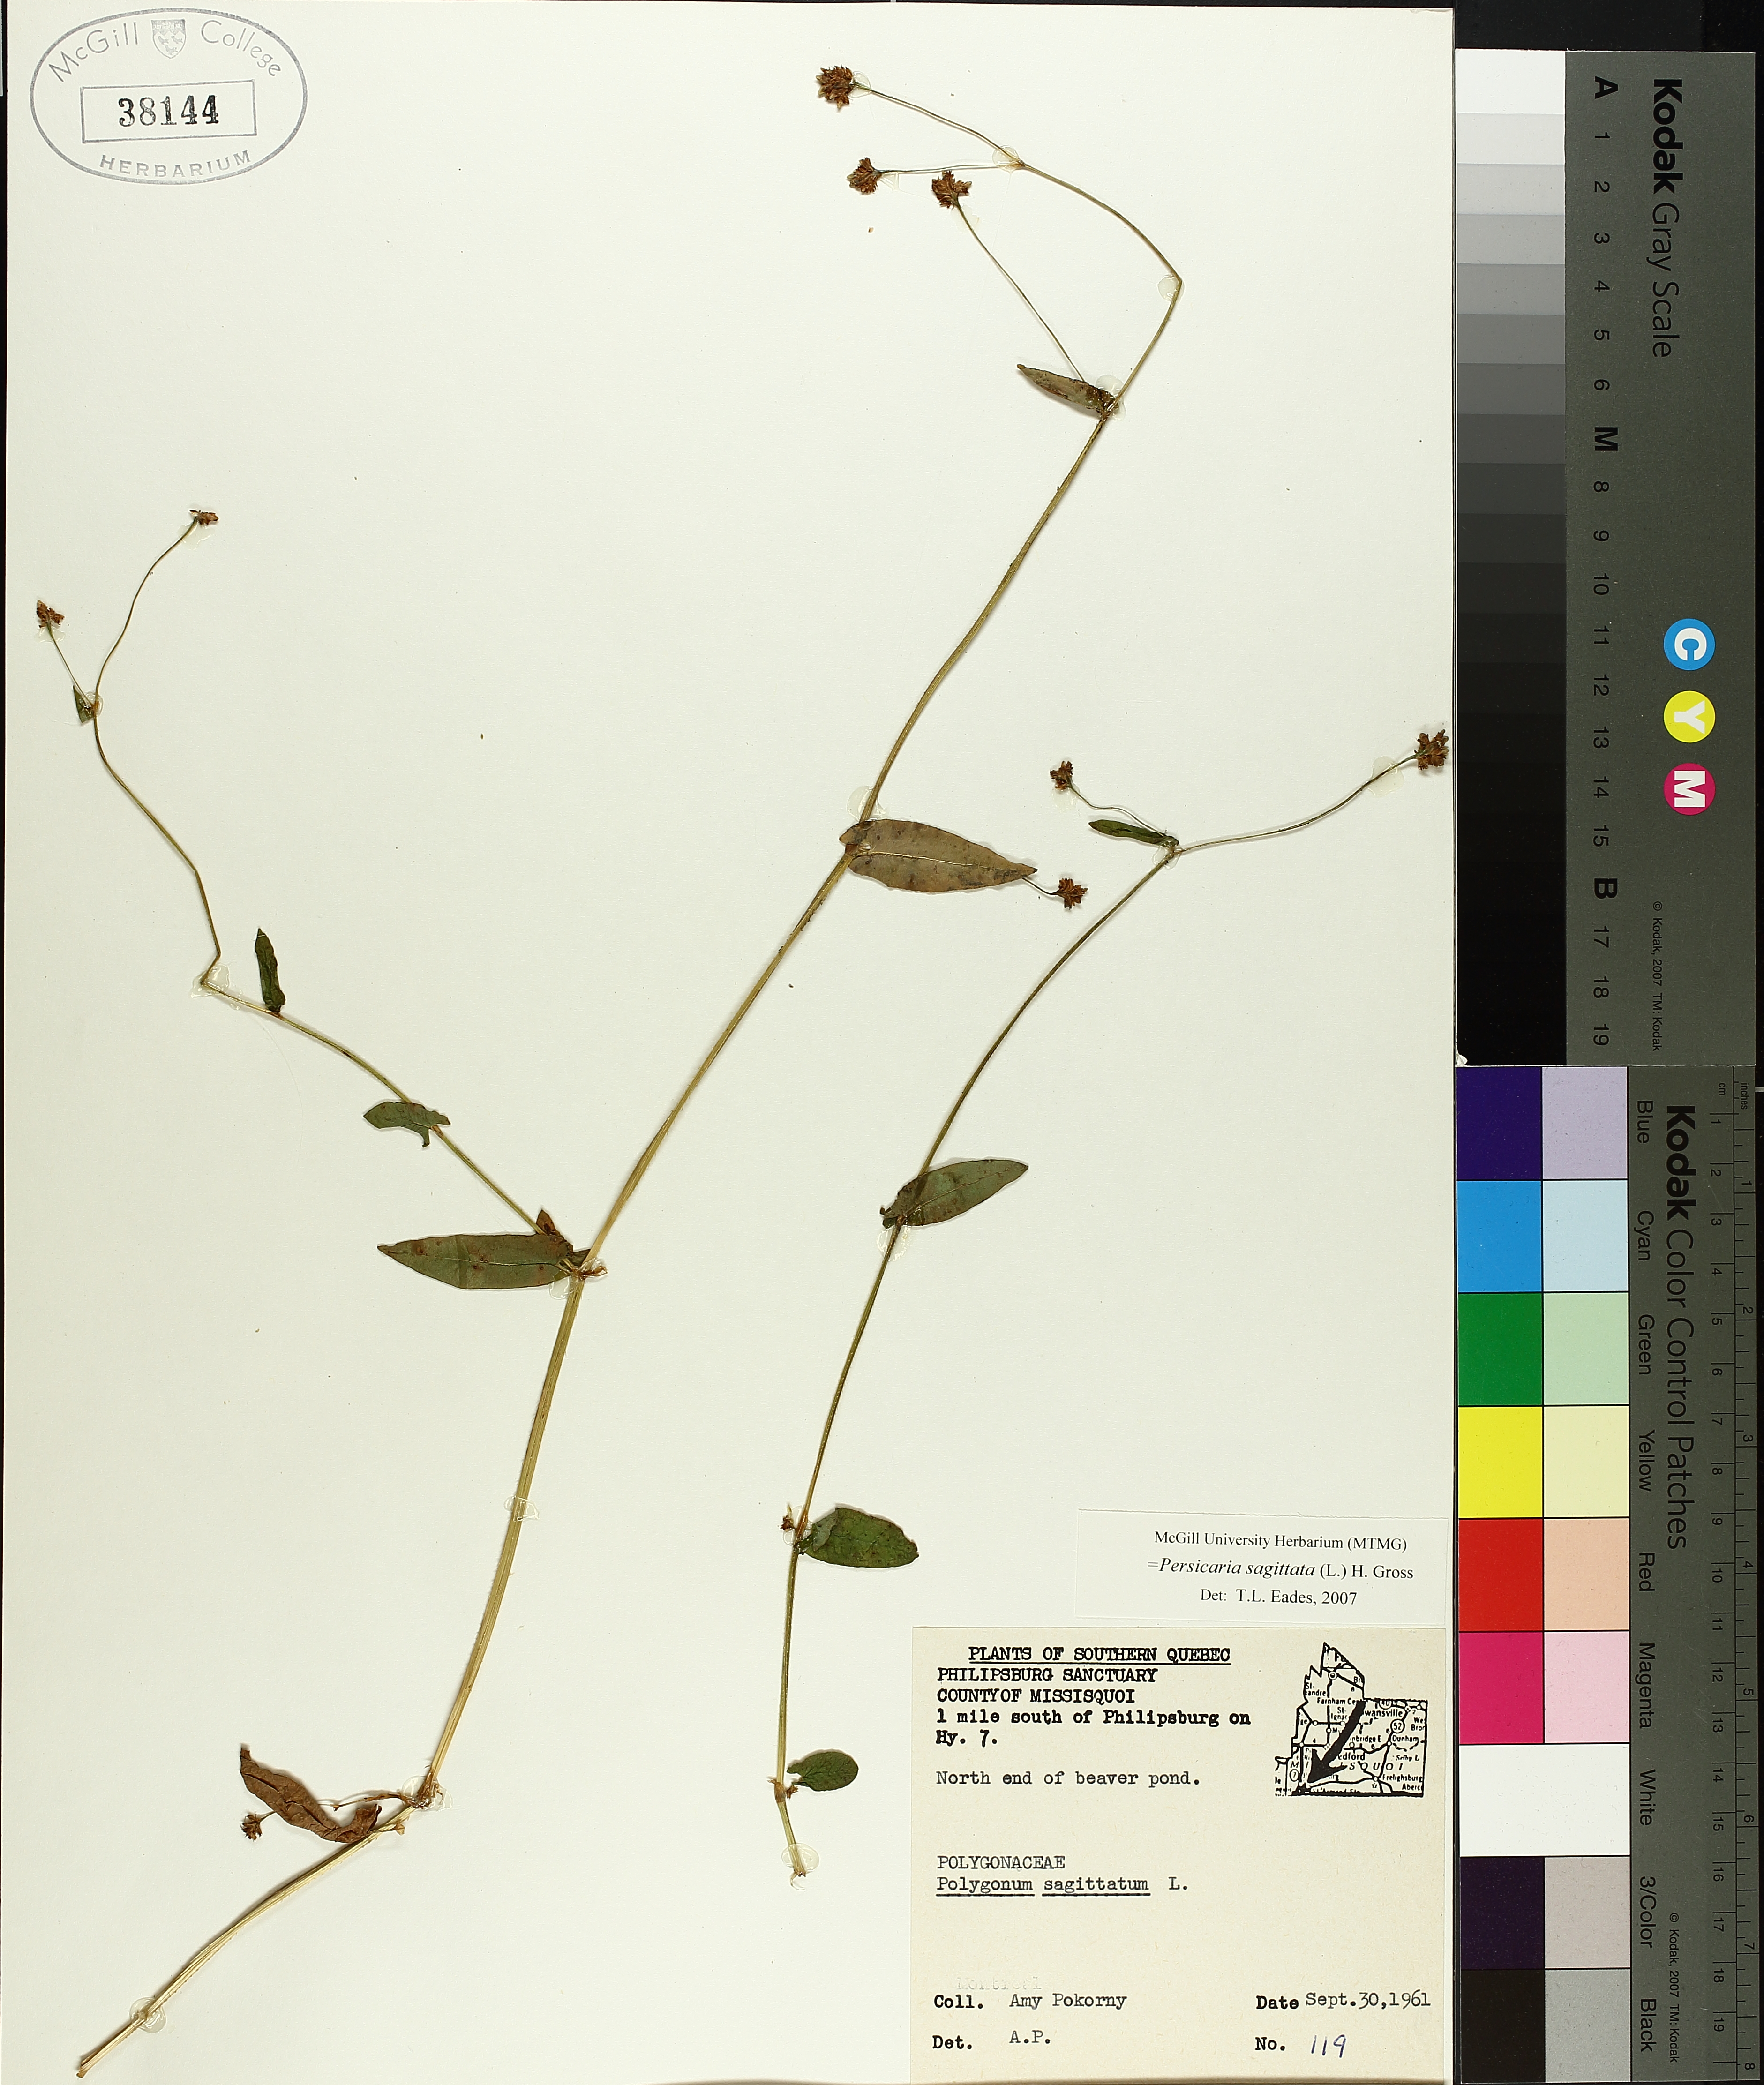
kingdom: Plantae
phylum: Tracheophyta
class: Magnoliopsida
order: Caryophyllales
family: Polygonaceae
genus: Persicaria
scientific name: Persicaria sagittata
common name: American tearthumb
